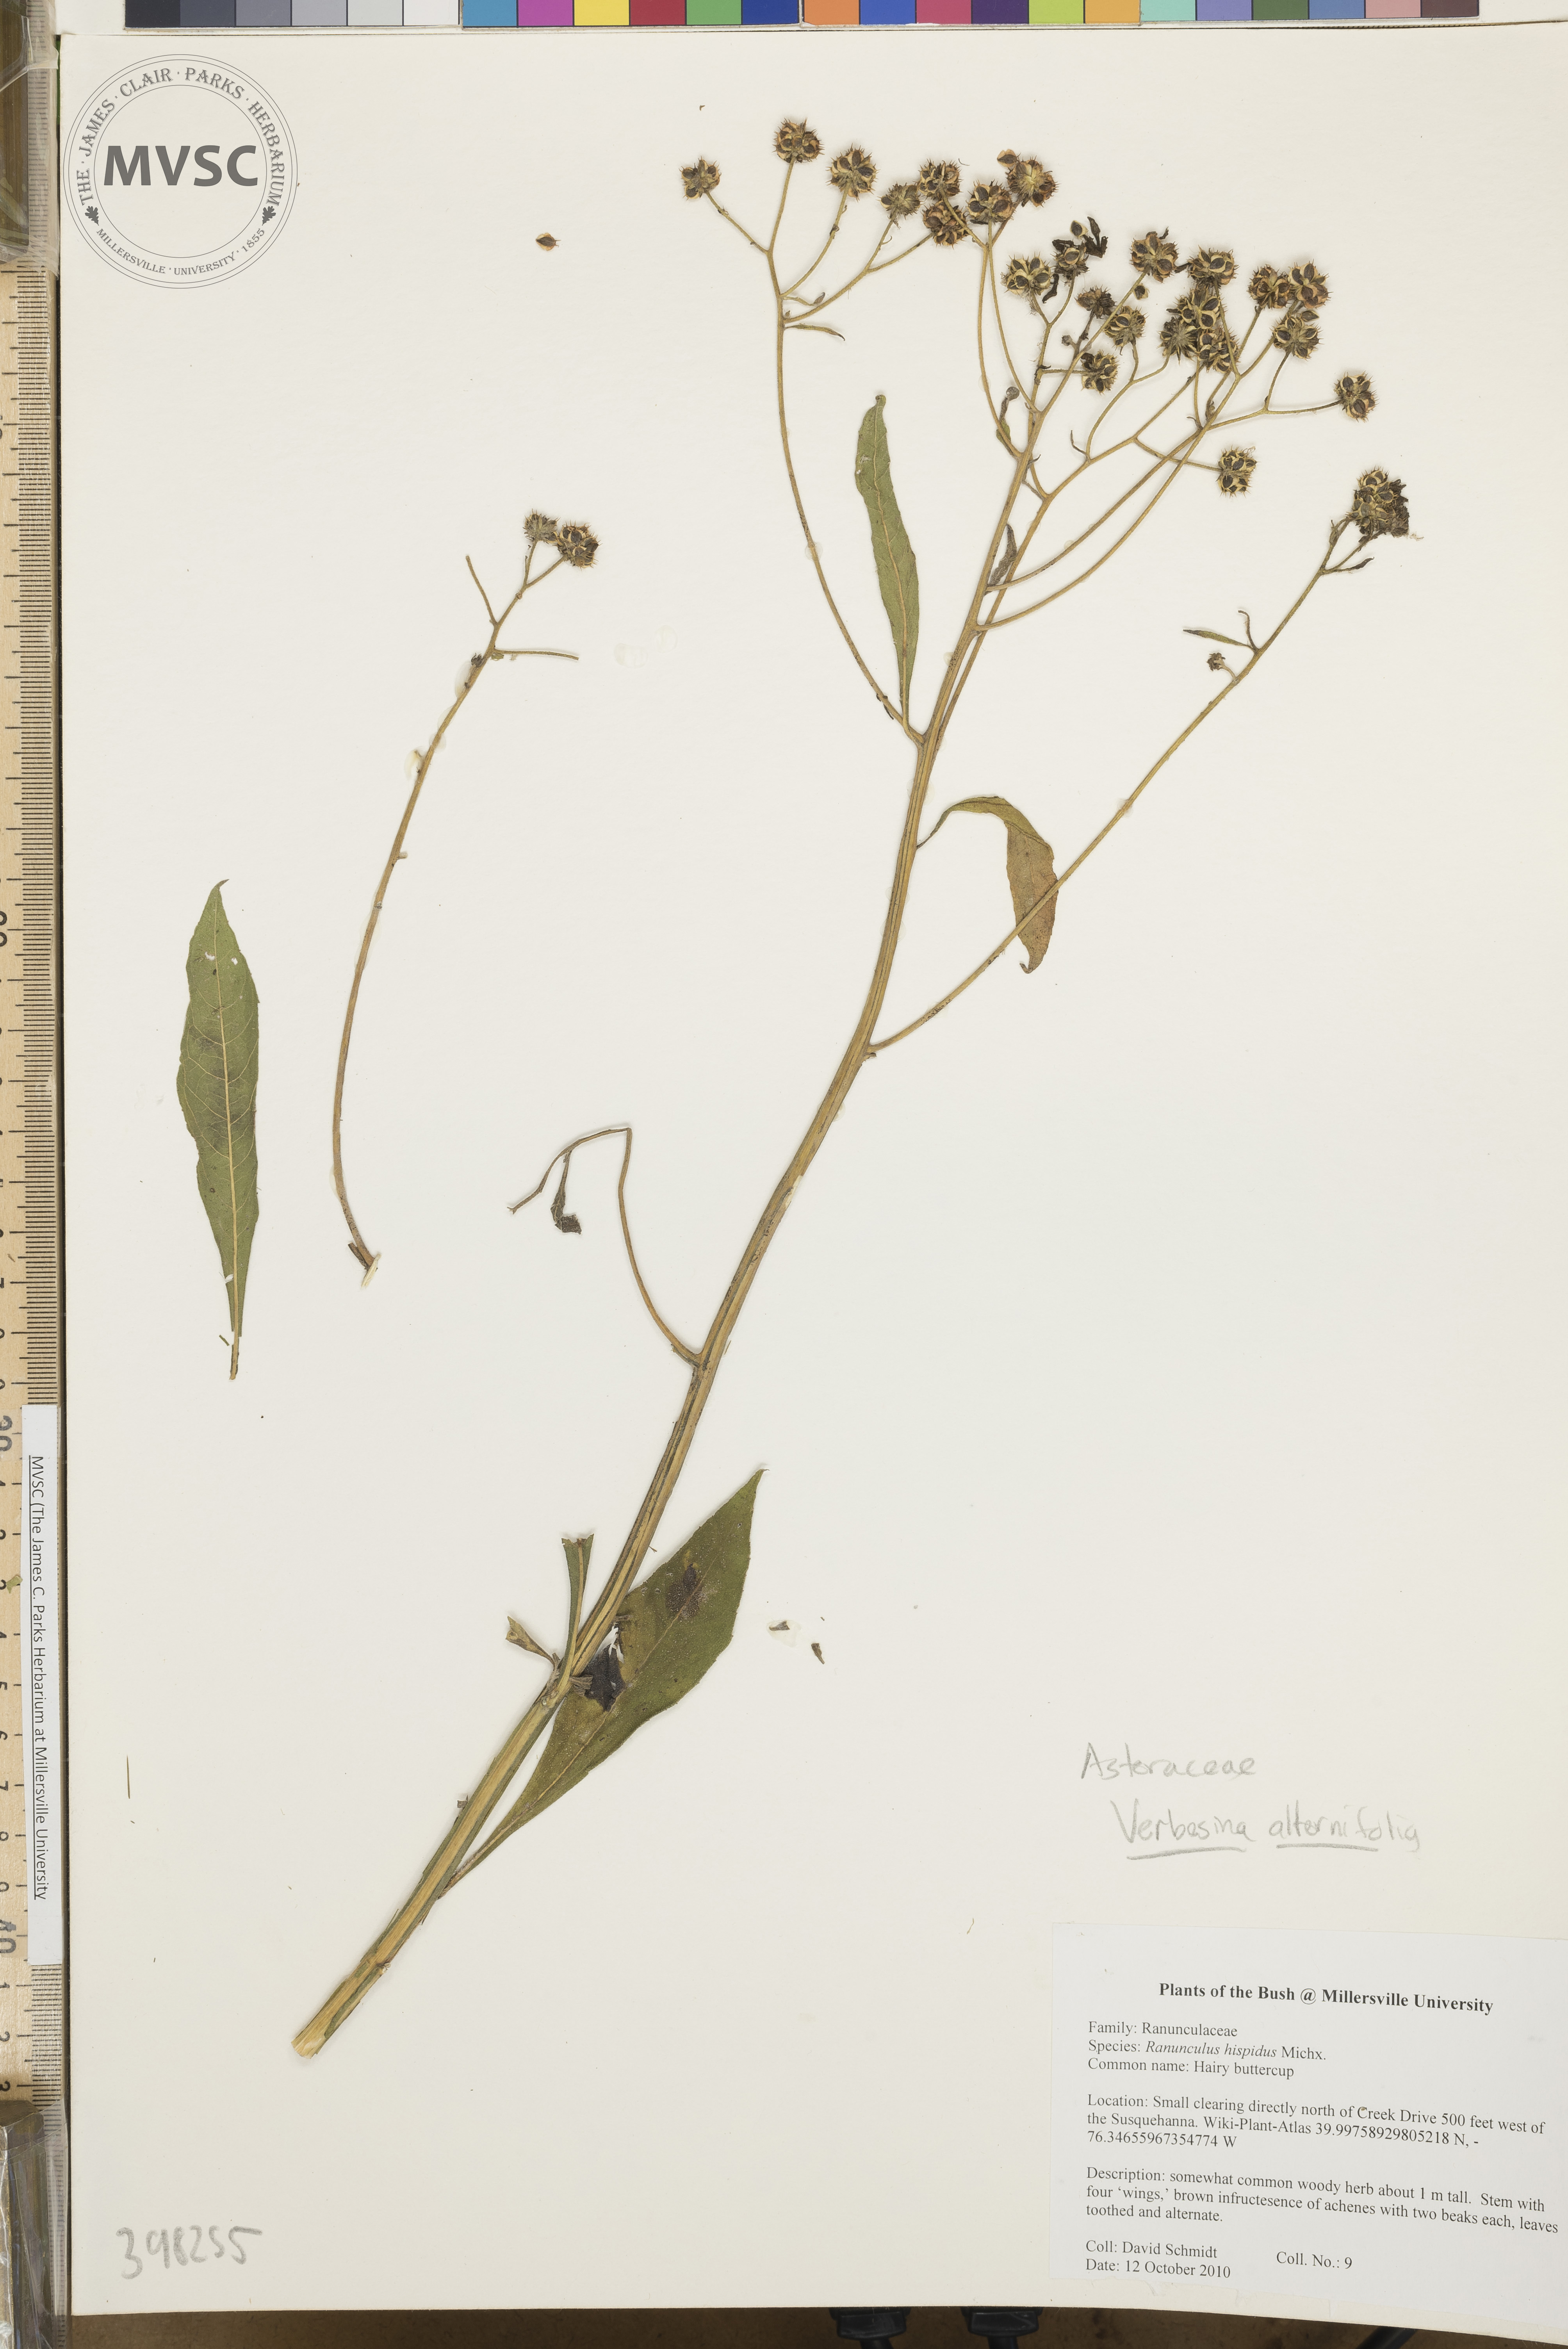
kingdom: Plantae
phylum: Tracheophyta
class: Magnoliopsida
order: Asterales
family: Asteraceae
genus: Verbesina
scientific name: Verbesina alternifolia
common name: Wingstem
